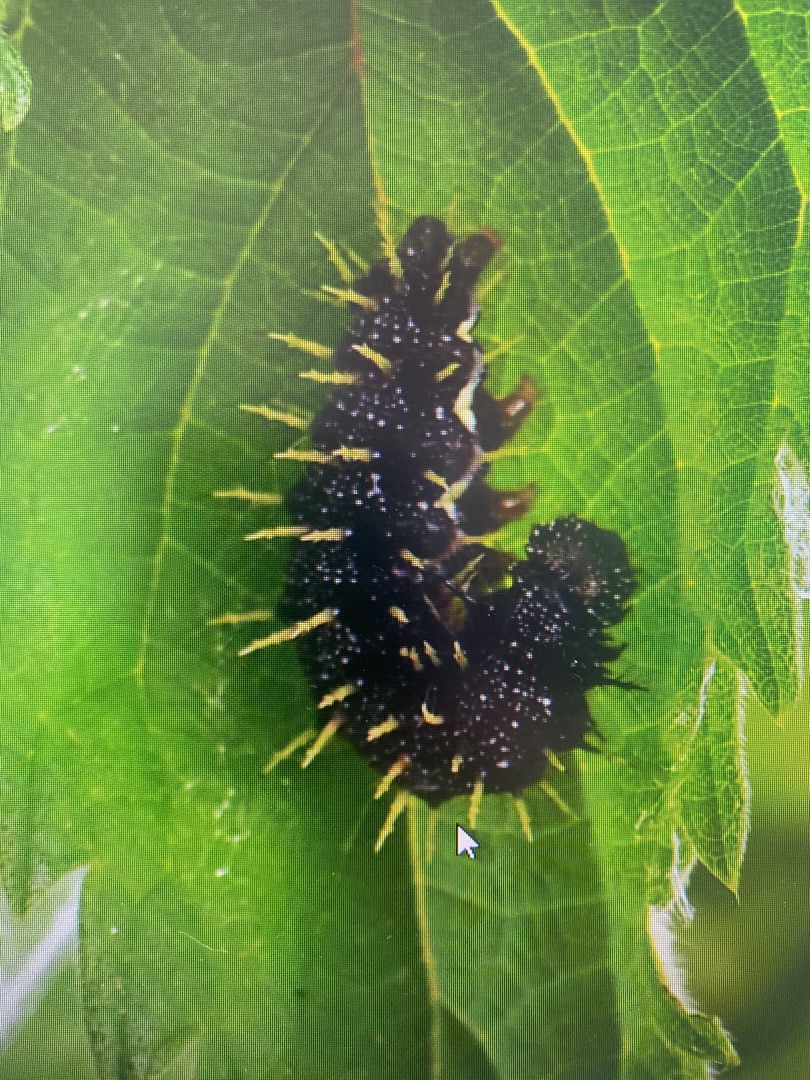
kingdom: Animalia
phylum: Arthropoda
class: Insecta
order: Lepidoptera
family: Nymphalidae
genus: Vanessa
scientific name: Vanessa atalanta
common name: Admiral
